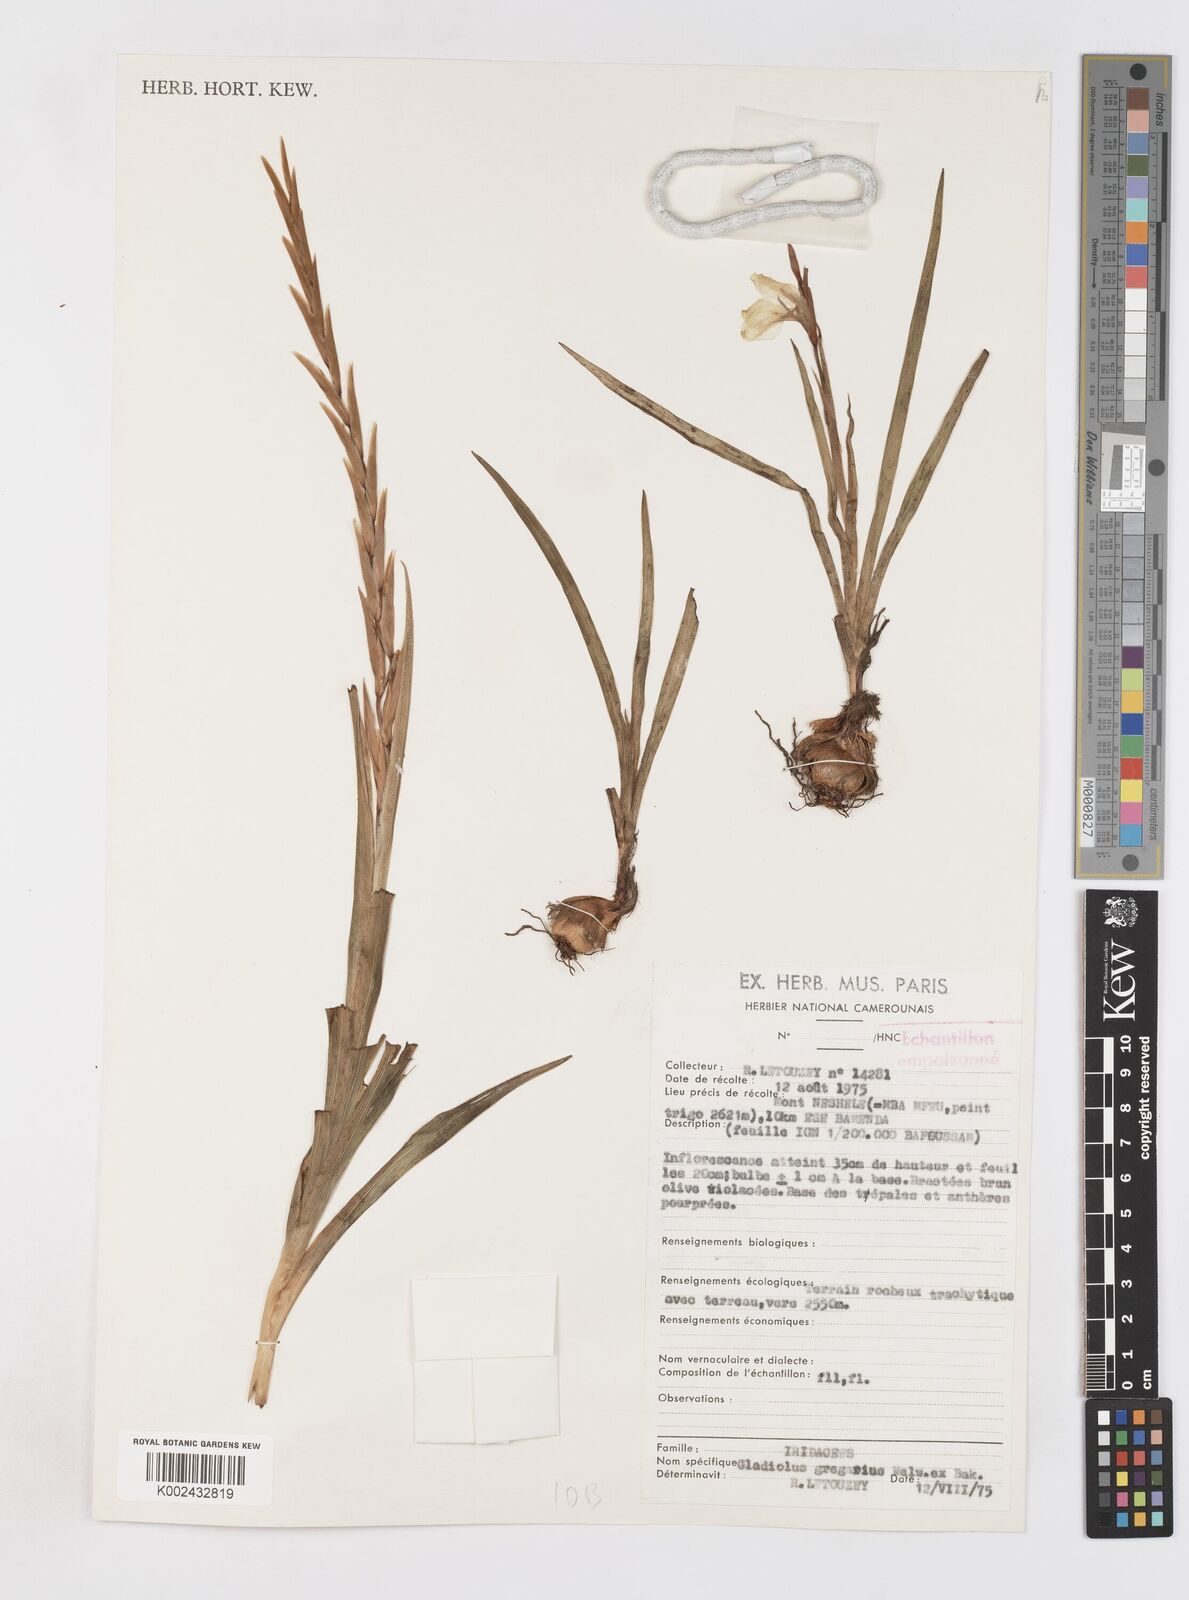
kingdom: Plantae
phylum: Tracheophyta
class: Liliopsida
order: Asparagales
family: Iridaceae
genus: Gladiolus
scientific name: Gladiolus gregarius
